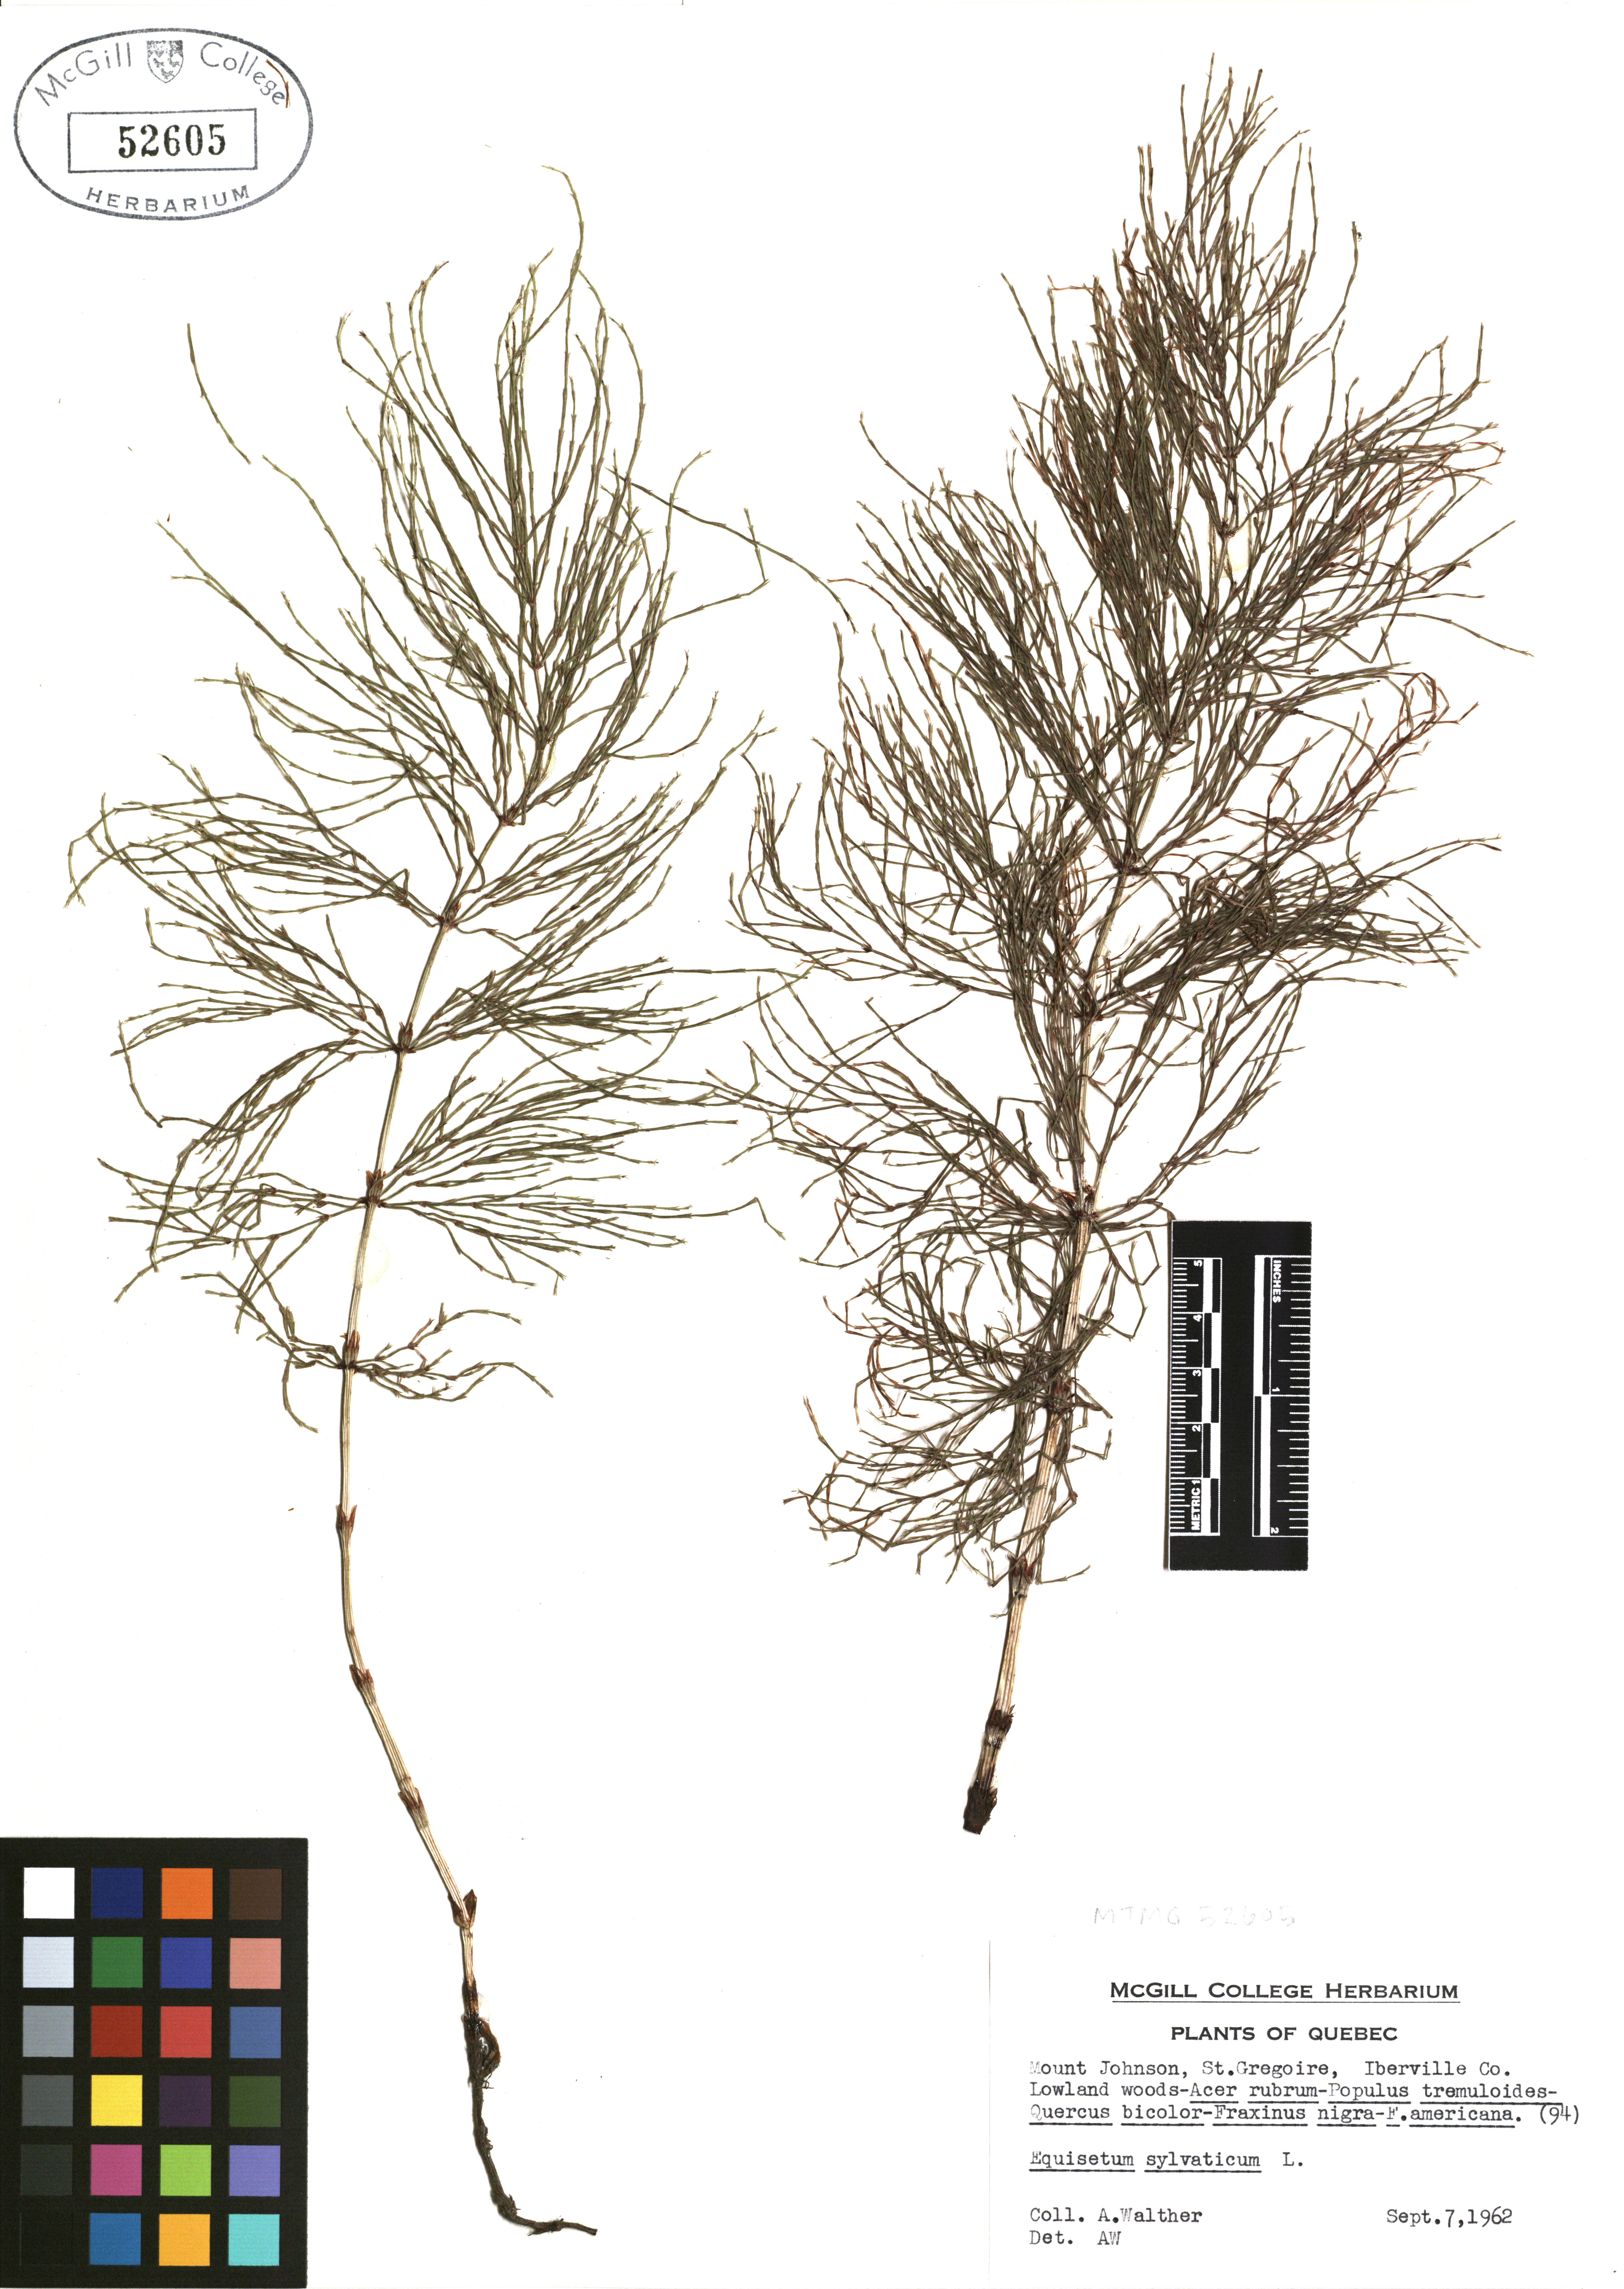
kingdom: Plantae
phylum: Tracheophyta
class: Polypodiopsida
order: Equisetales
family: Equisetaceae
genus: Equisetum
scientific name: Equisetum sylvaticum
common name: Wood horsetail
